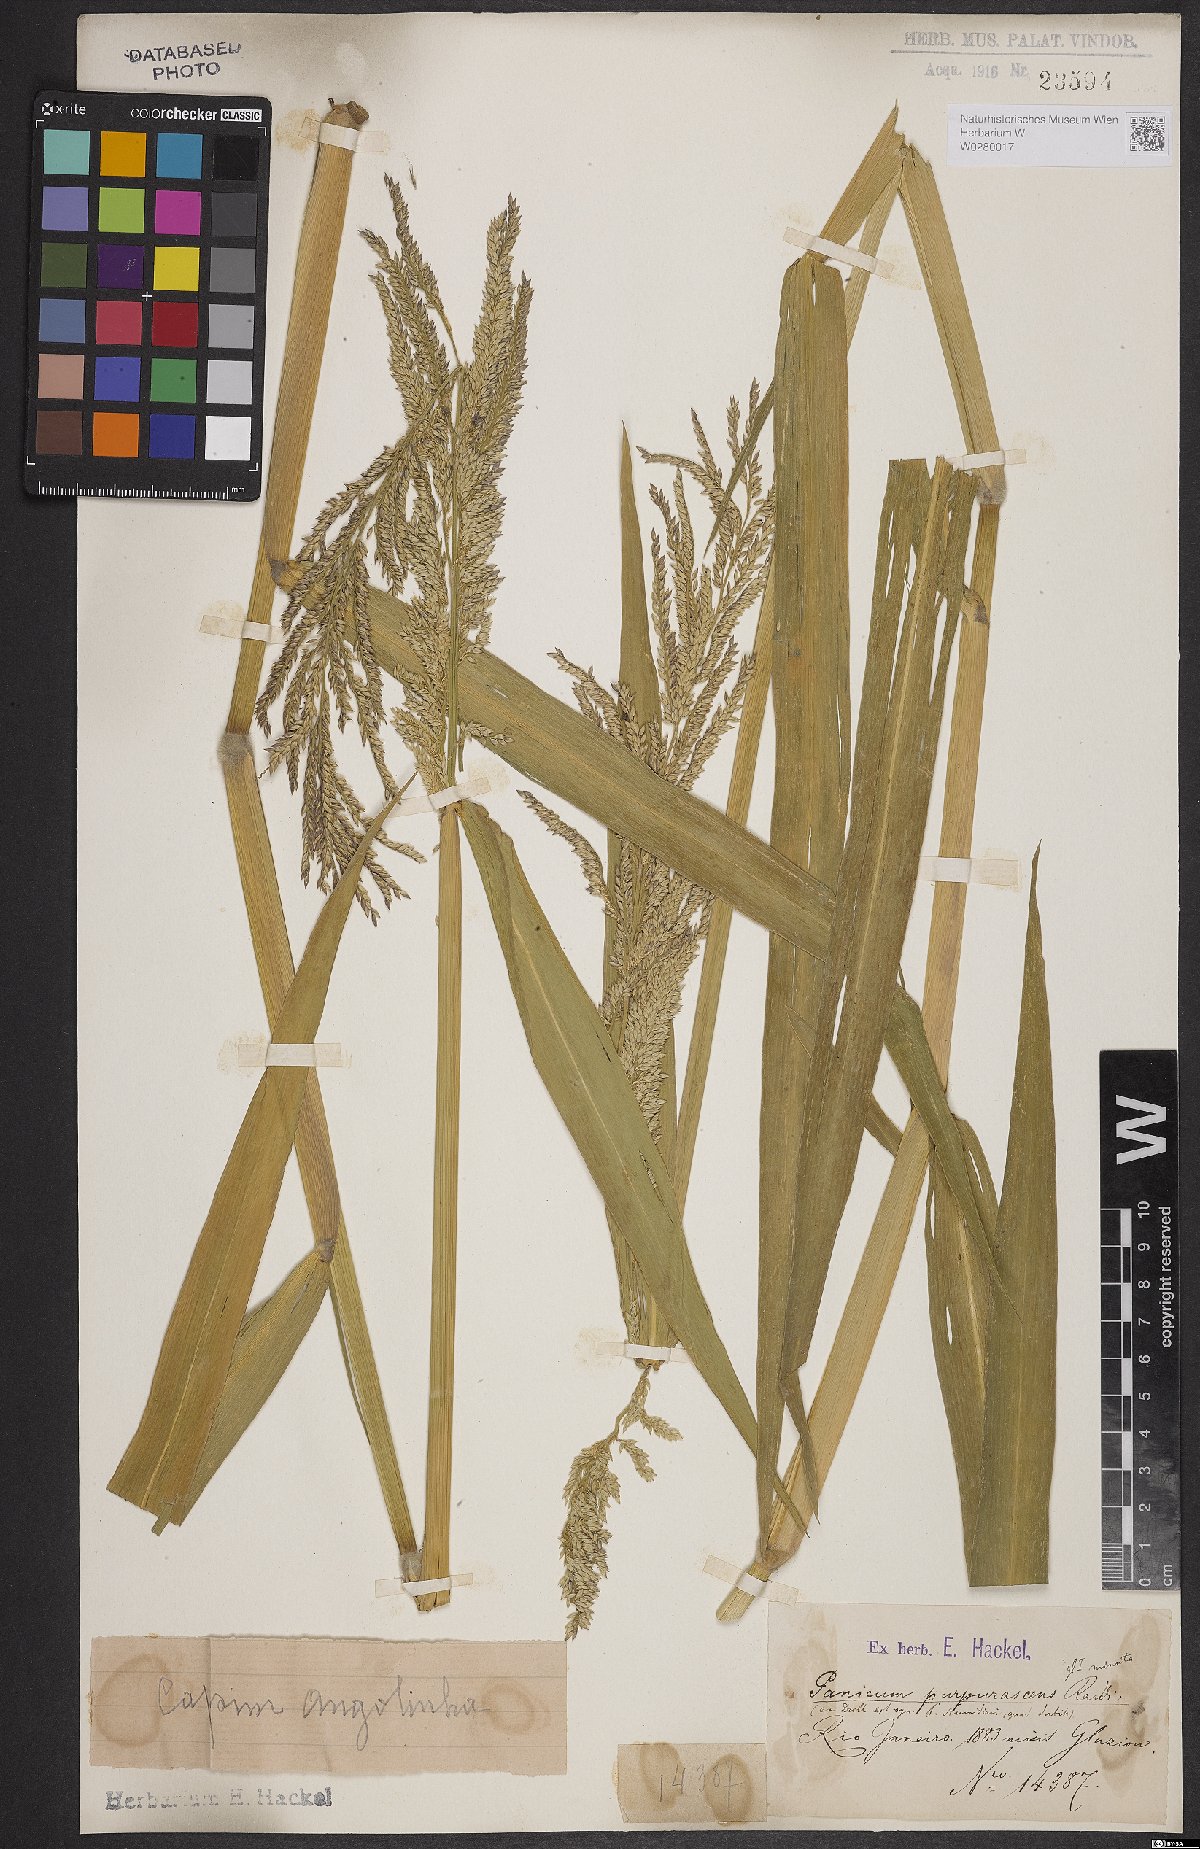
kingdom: Plantae
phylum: Tracheophyta
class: Liliopsida
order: Poales
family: Poaceae
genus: Urochloa
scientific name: Urochloa mutica
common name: Para grass
